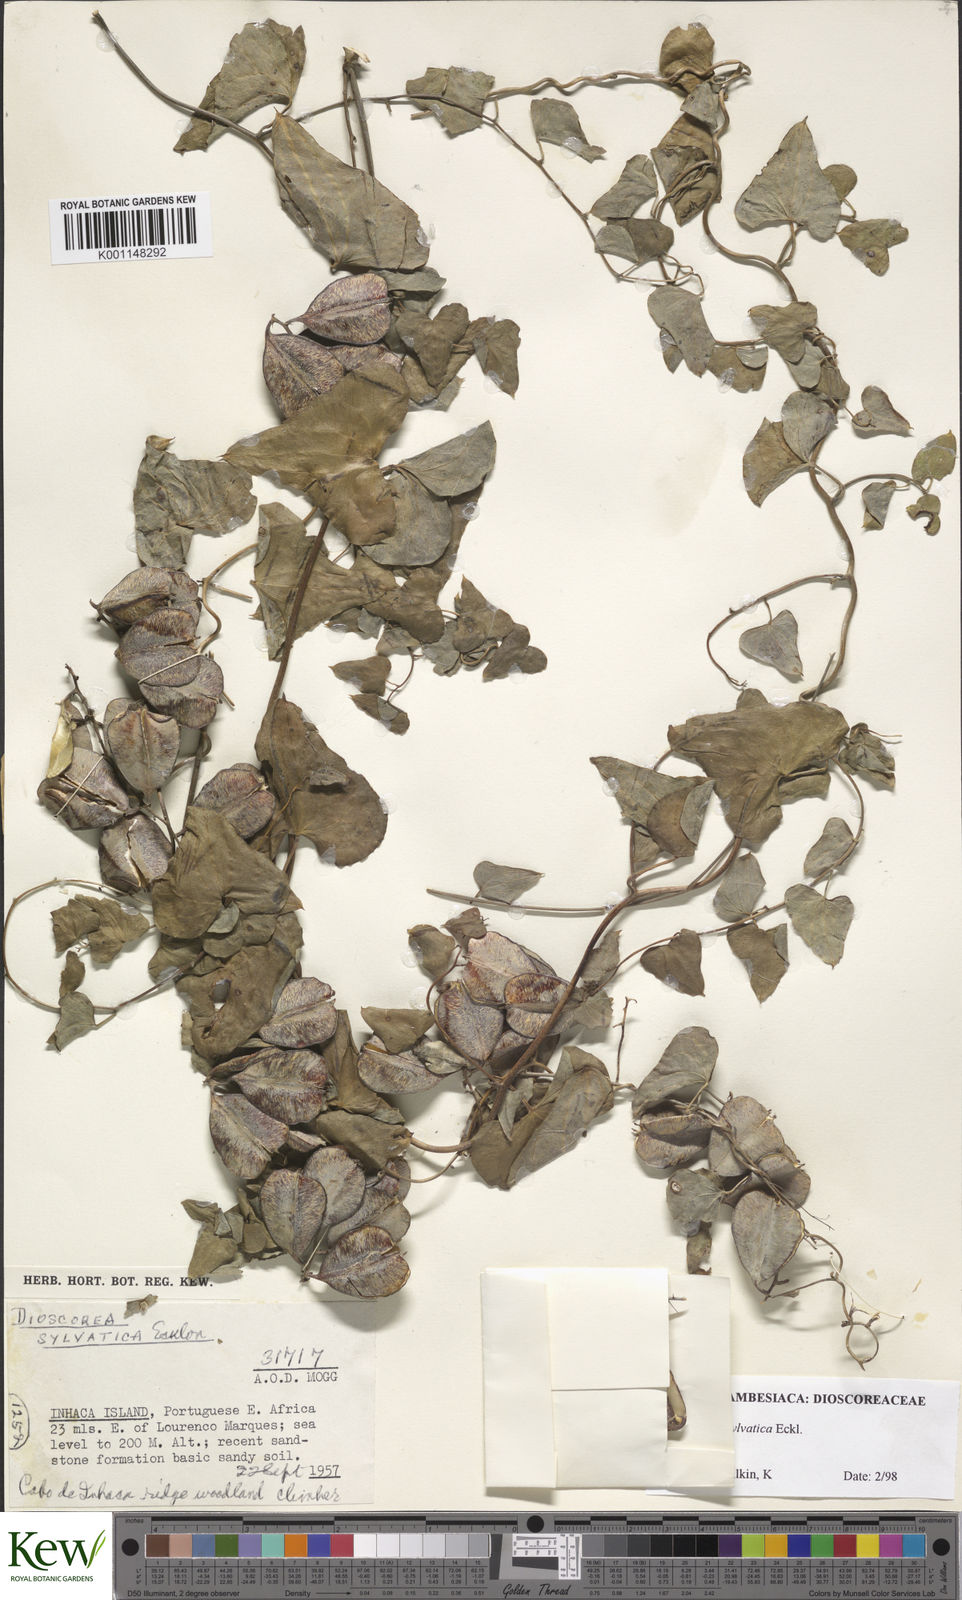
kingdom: Plantae
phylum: Tracheophyta
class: Liliopsida
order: Dioscoreales
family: Dioscoreaceae
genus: Dioscorea
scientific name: Dioscorea sylvatica
